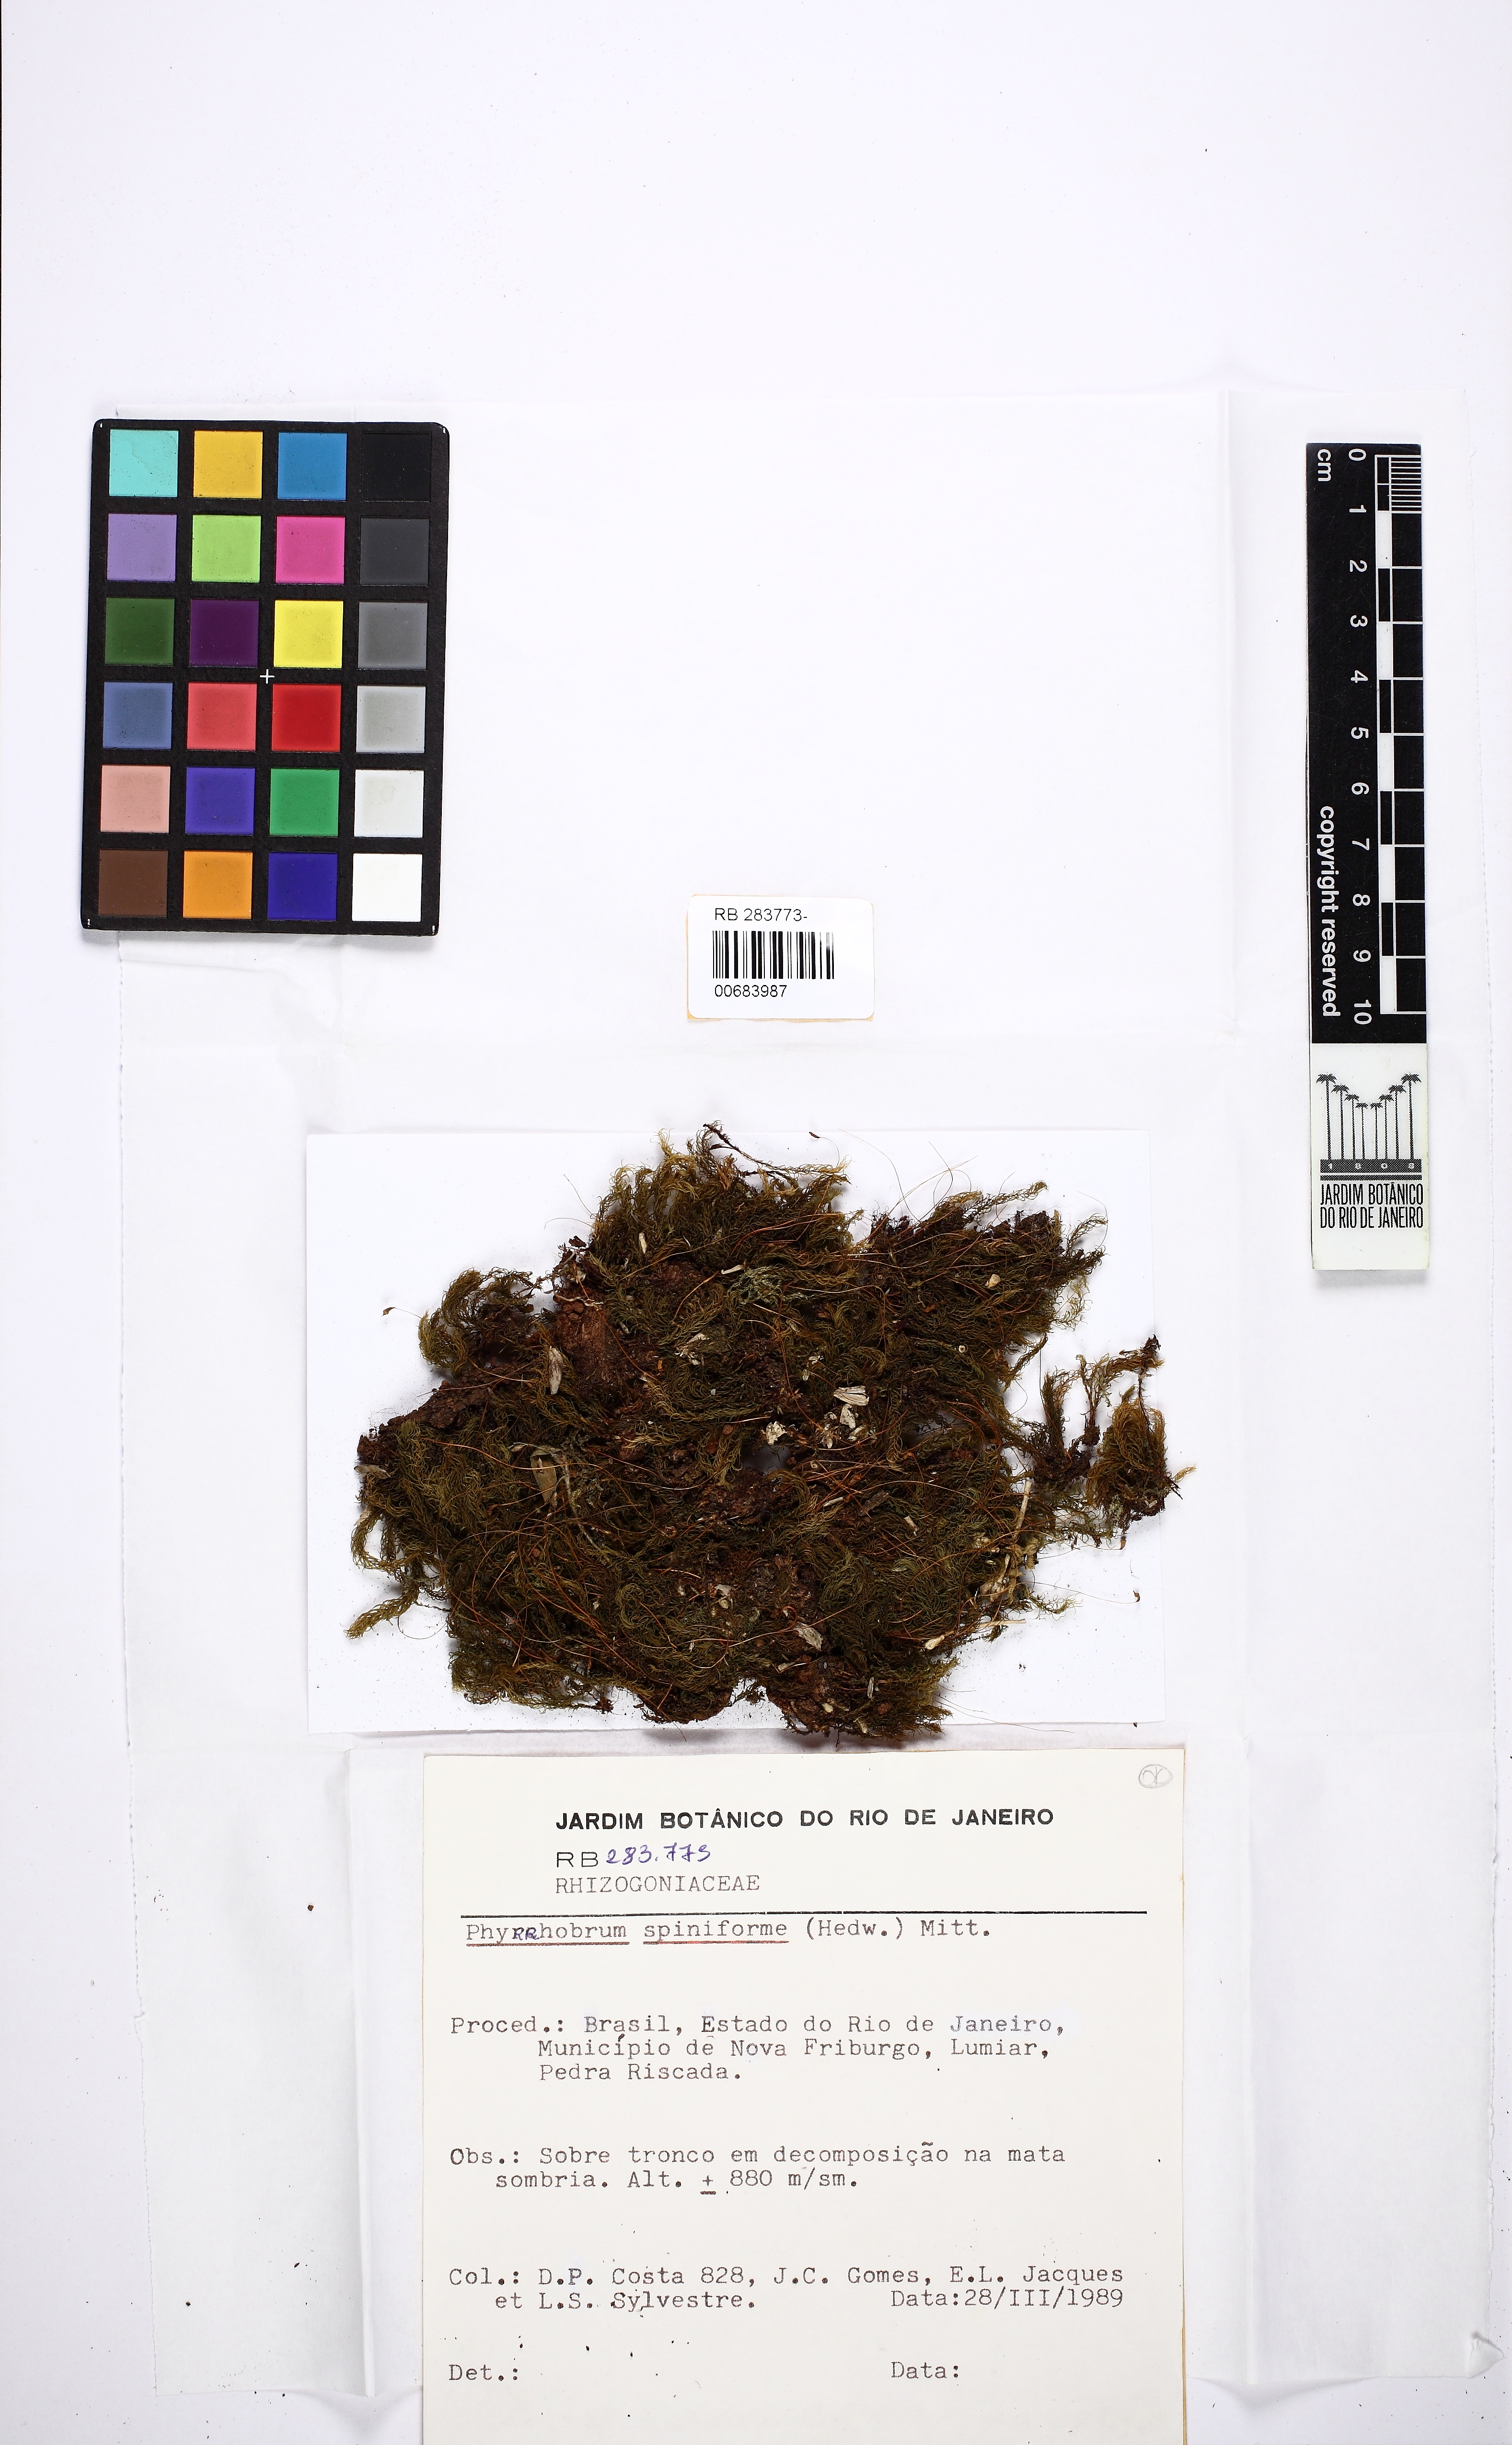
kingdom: Plantae
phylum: Bryophyta
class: Bryopsida
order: Rhizogoniales
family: Calomniaceae
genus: Pyrrhobryum
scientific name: Pyrrhobryum spiniforme
